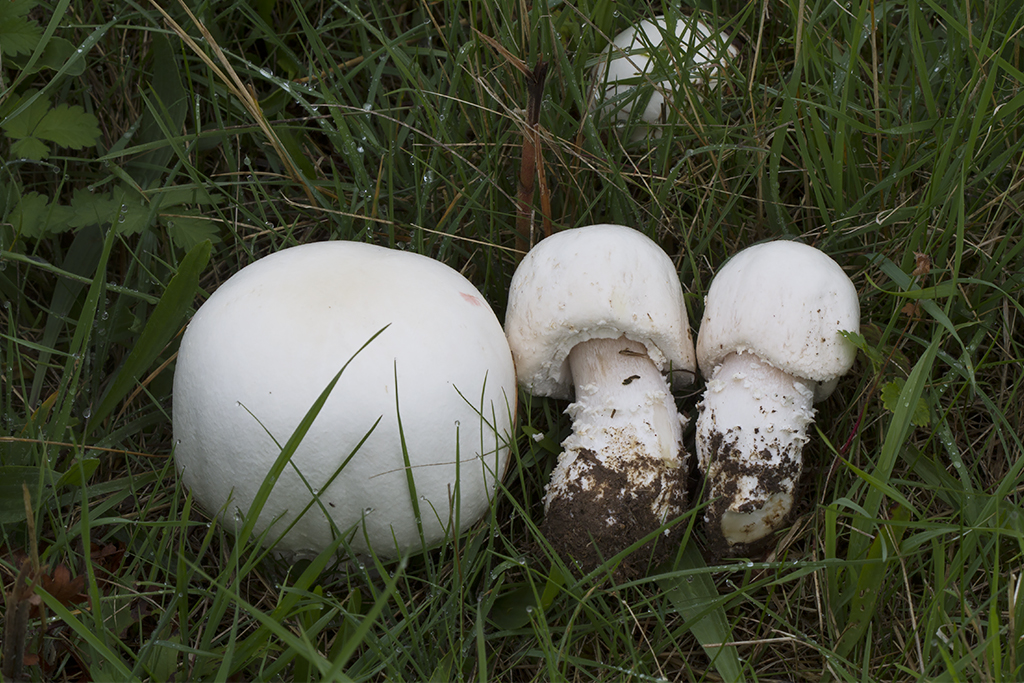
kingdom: Fungi
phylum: Basidiomycota
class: Agaricomycetes
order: Agaricales
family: Agaricaceae
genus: Agaricus
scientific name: Agaricus crocodilinus
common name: landsby-champignon
